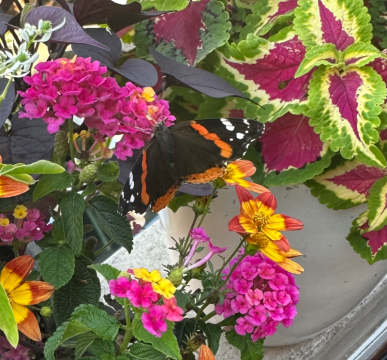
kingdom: Animalia
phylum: Arthropoda
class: Insecta
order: Lepidoptera
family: Nymphalidae
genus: Vanessa
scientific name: Vanessa atalanta
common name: Red Admiral
